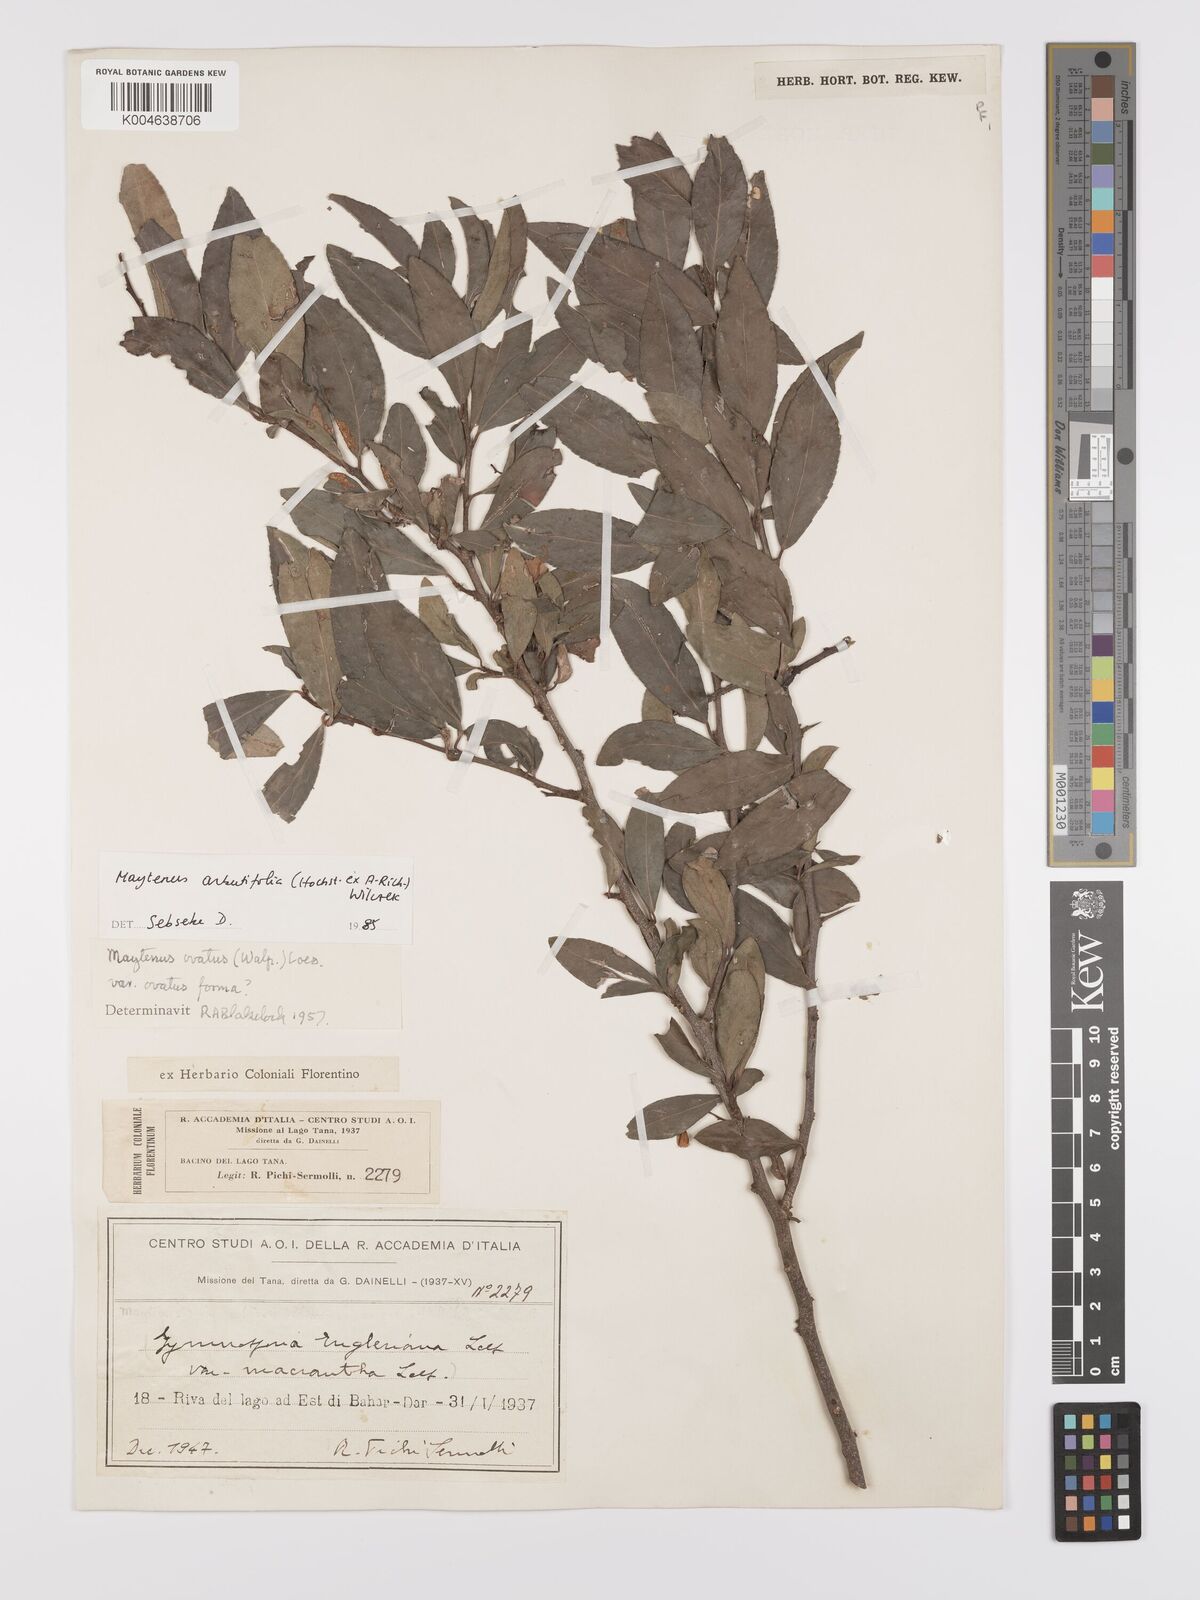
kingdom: Plantae
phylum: Tracheophyta
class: Magnoliopsida
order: Celastrales
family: Celastraceae
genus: Gymnosporia
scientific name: Gymnosporia arbutifolia
